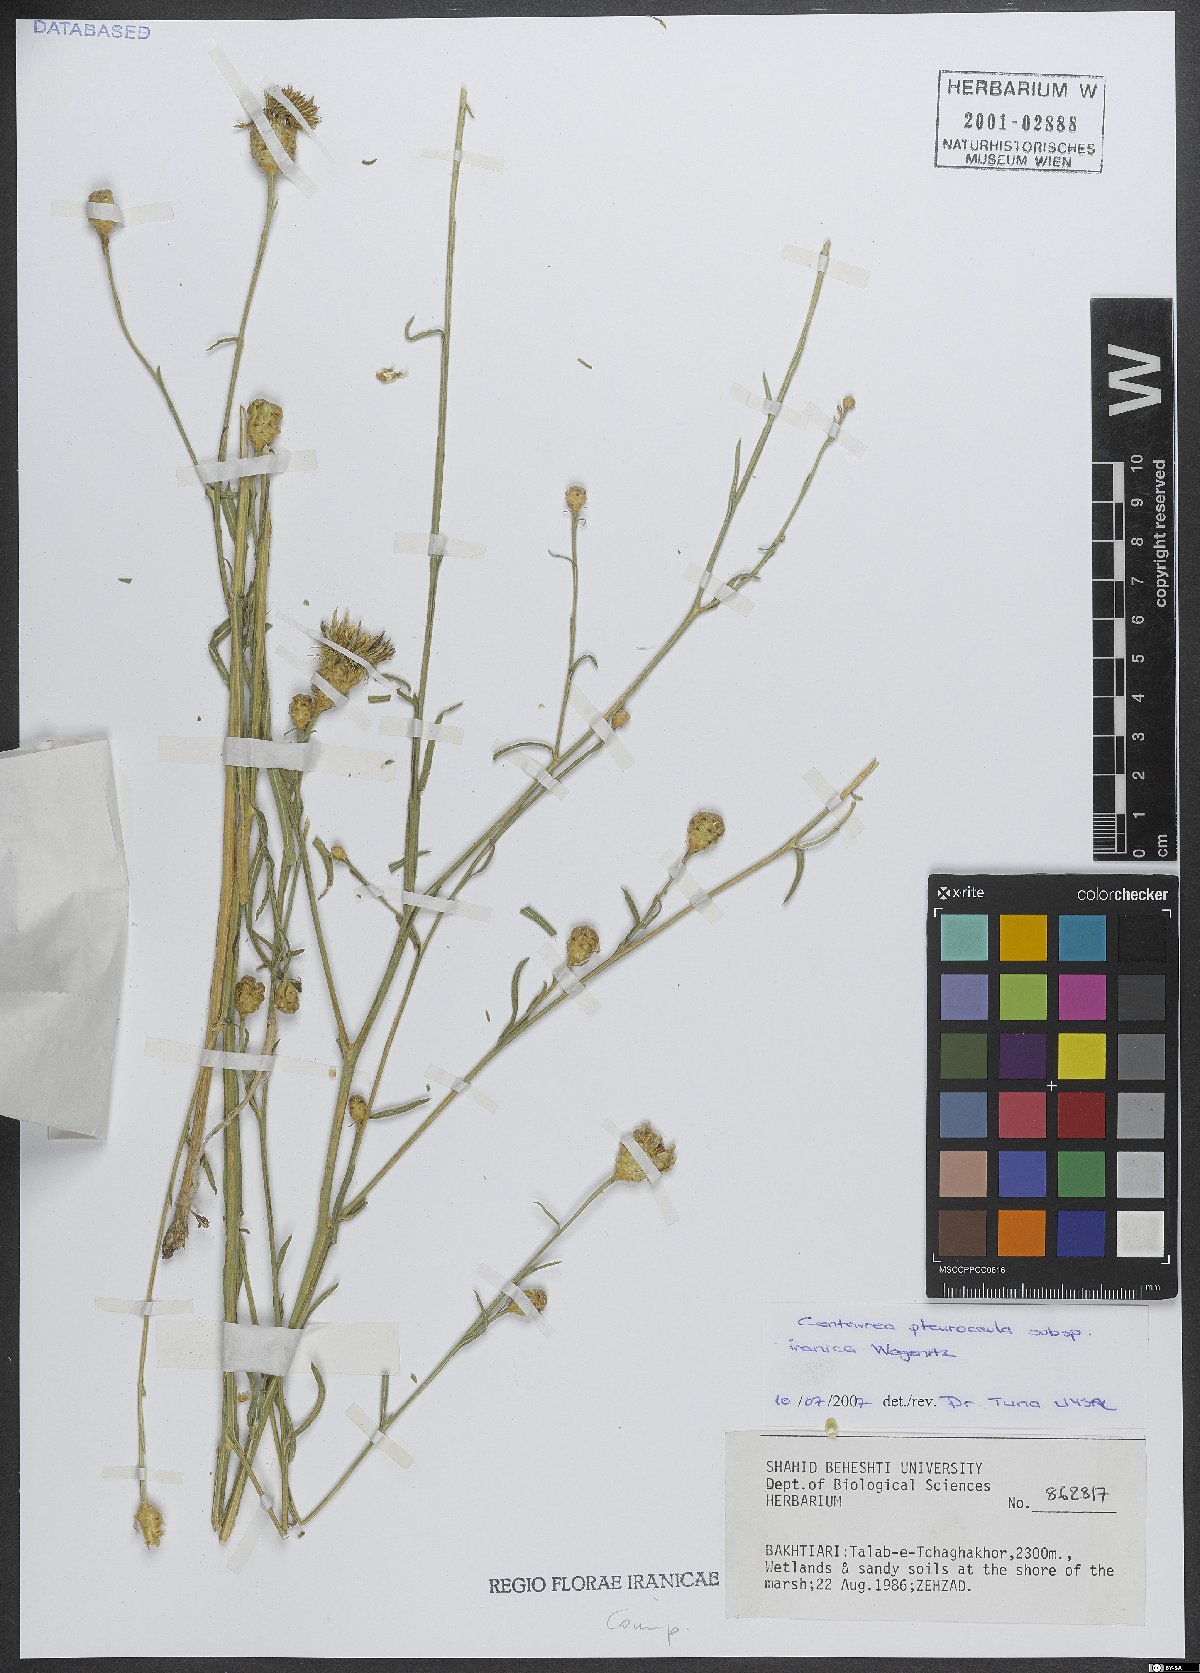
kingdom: Plantae
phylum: Tracheophyta
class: Magnoliopsida
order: Asterales
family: Asteraceae
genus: Centaurea
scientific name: Centaurea pterocaula
